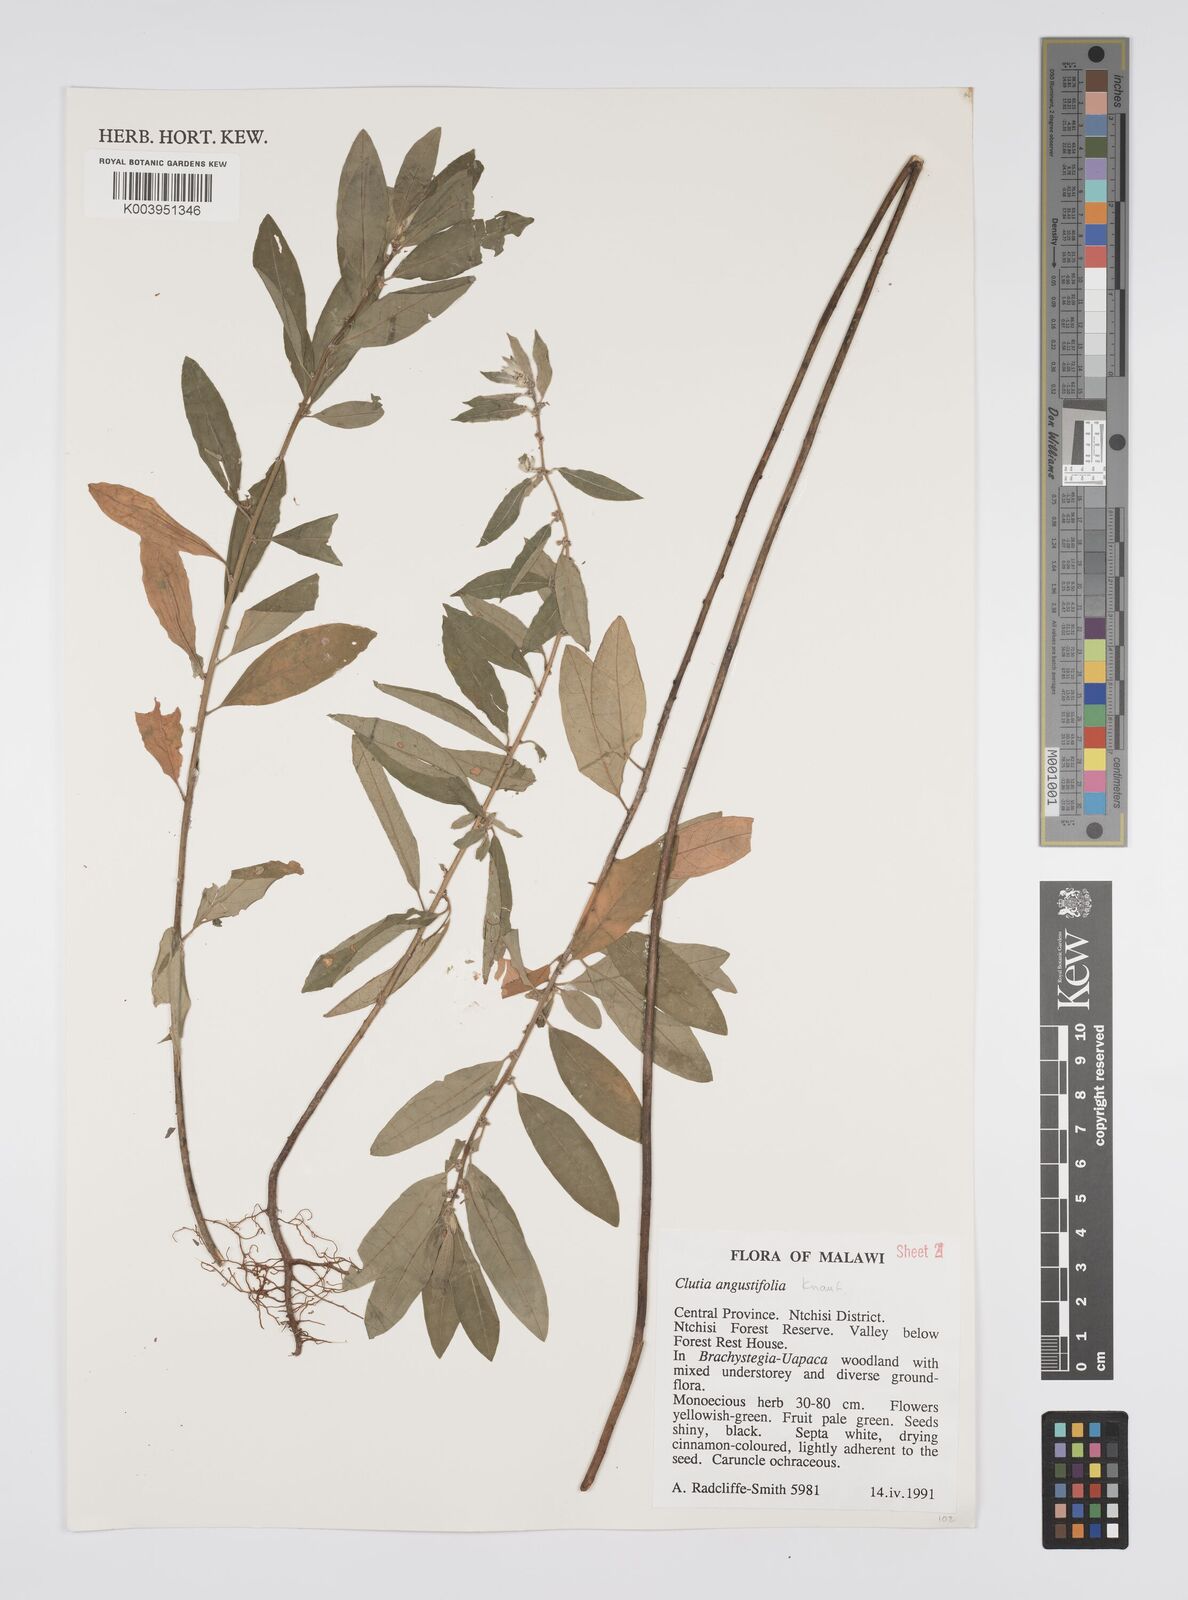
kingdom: Plantae
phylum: Tracheophyta
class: Magnoliopsida
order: Malpighiales
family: Peraceae
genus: Clutia
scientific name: Clutia angustifolia
